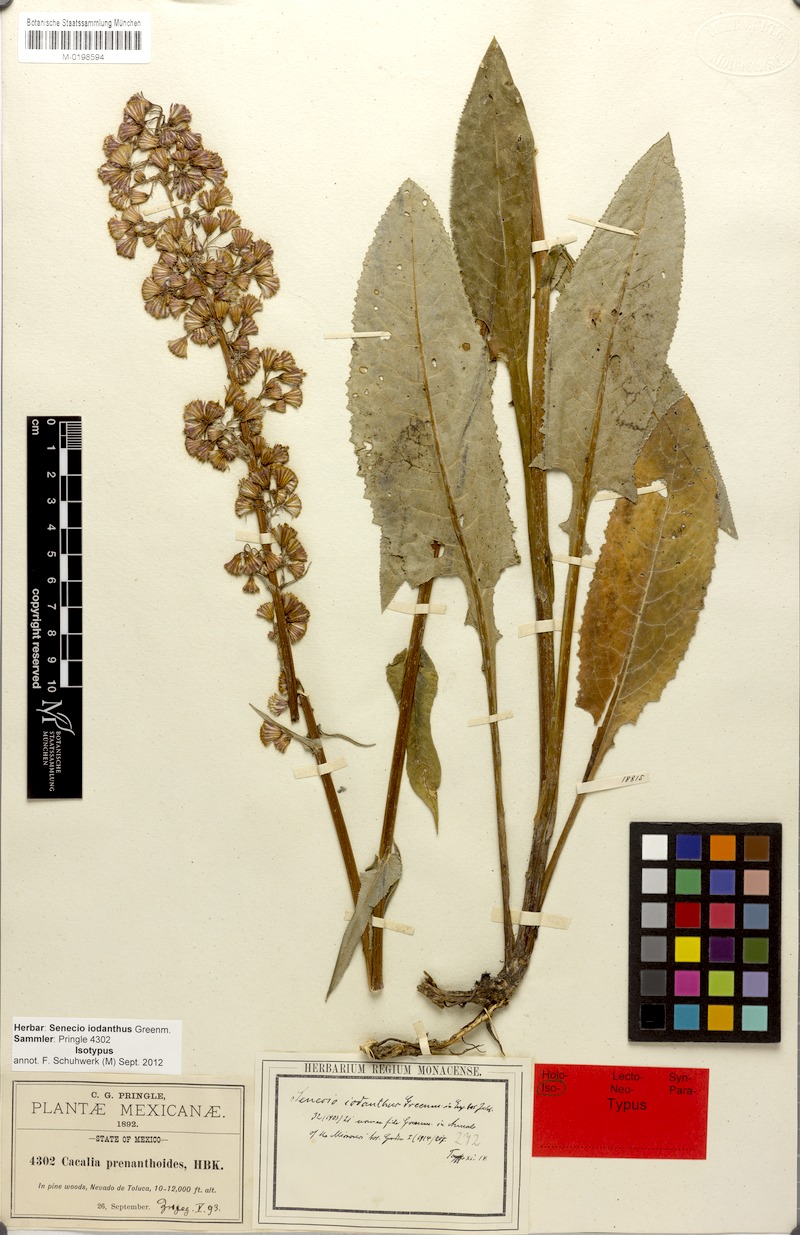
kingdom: Plantae
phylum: Tracheophyta
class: Magnoliopsida
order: Asterales
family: Asteraceae
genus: Senecio
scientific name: Senecio iodanthus
